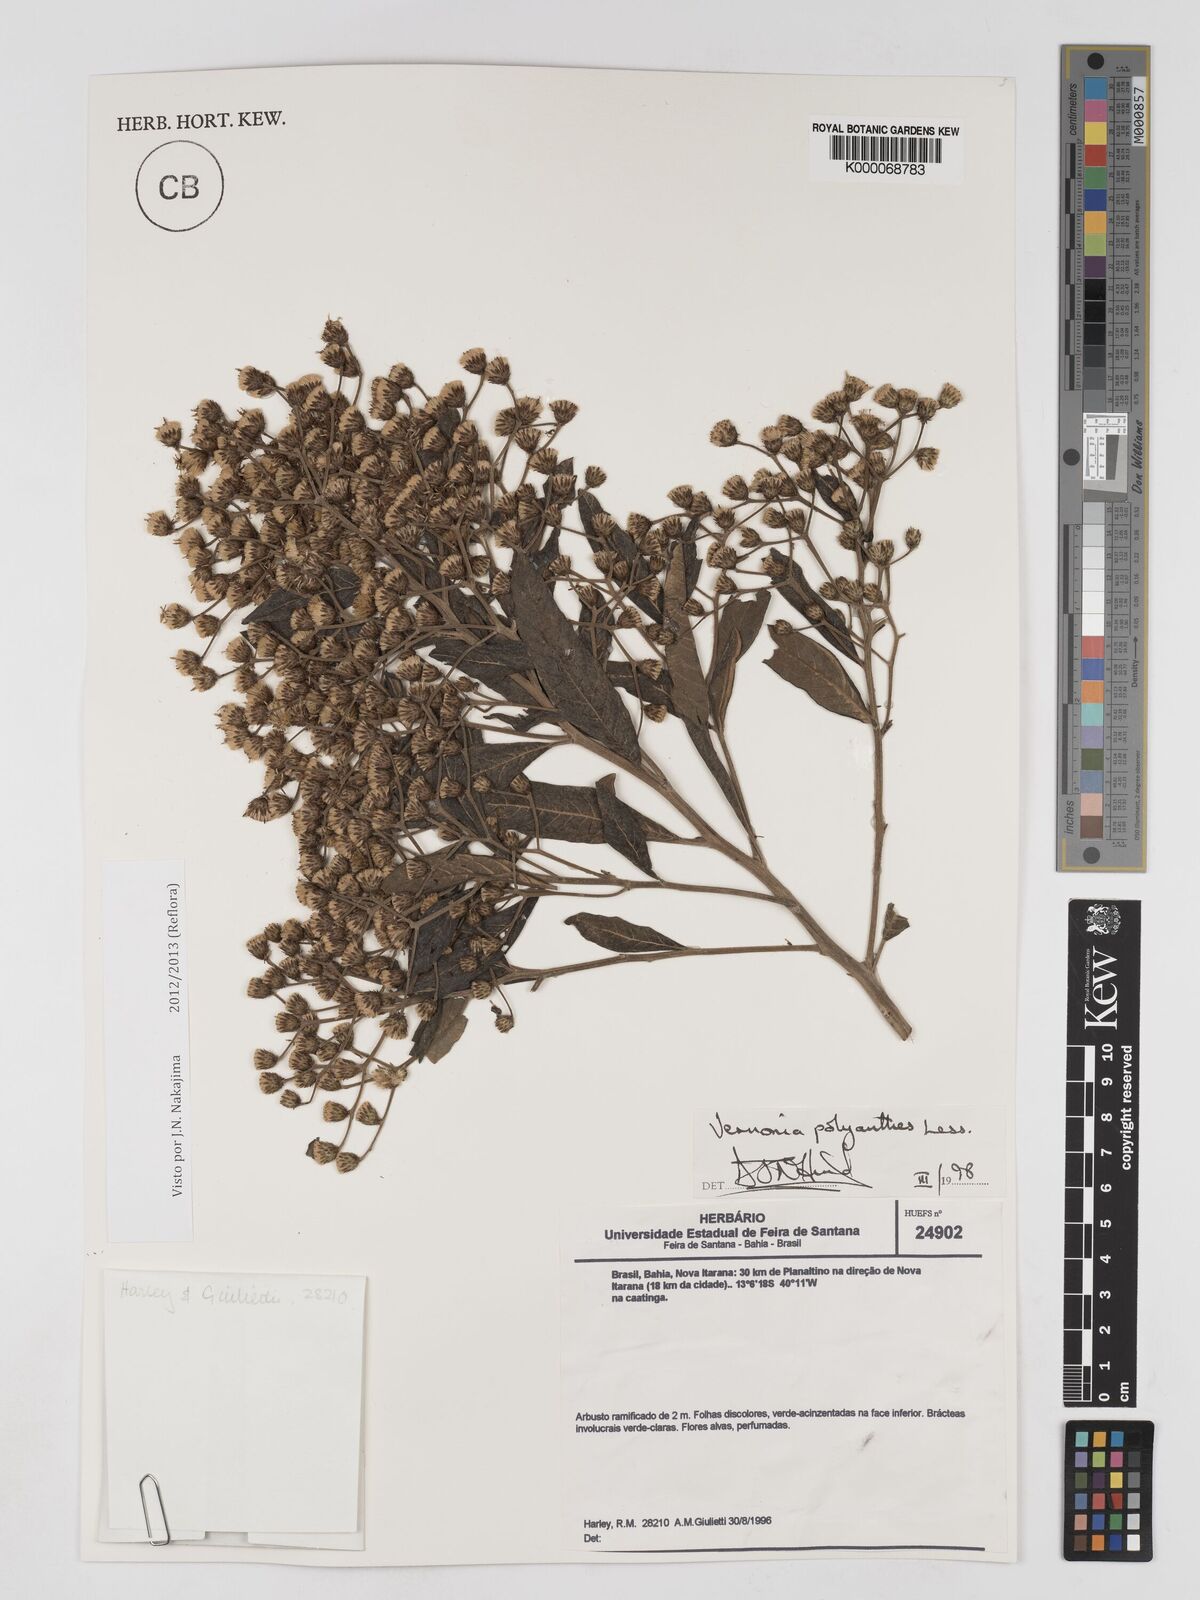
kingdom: Plantae
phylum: Tracheophyta
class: Magnoliopsida
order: Asterales
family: Asteraceae
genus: Vernonanthura
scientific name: Vernonanthura polyanthes
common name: Tree aster
